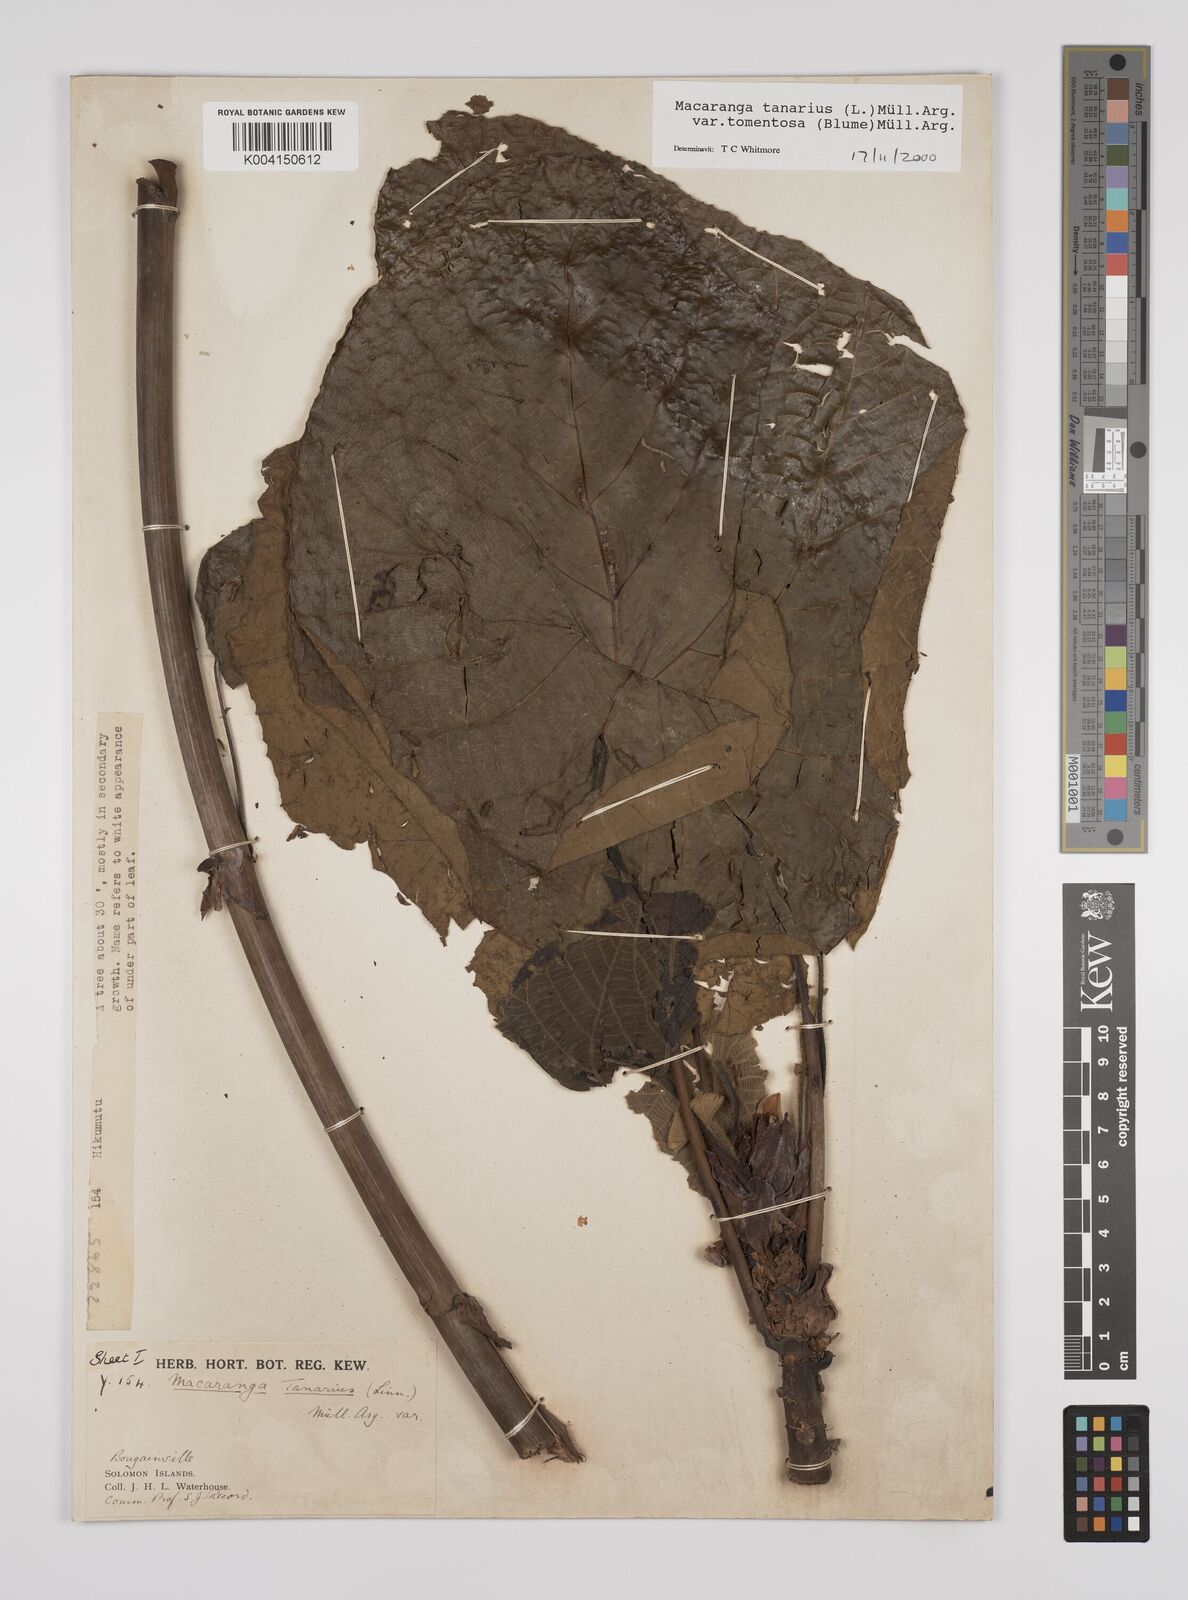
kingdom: Plantae
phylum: Tracheophyta
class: Magnoliopsida
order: Malpighiales
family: Euphorbiaceae
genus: Macaranga
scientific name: Macaranga tanarius
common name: Parasol leaf tree
